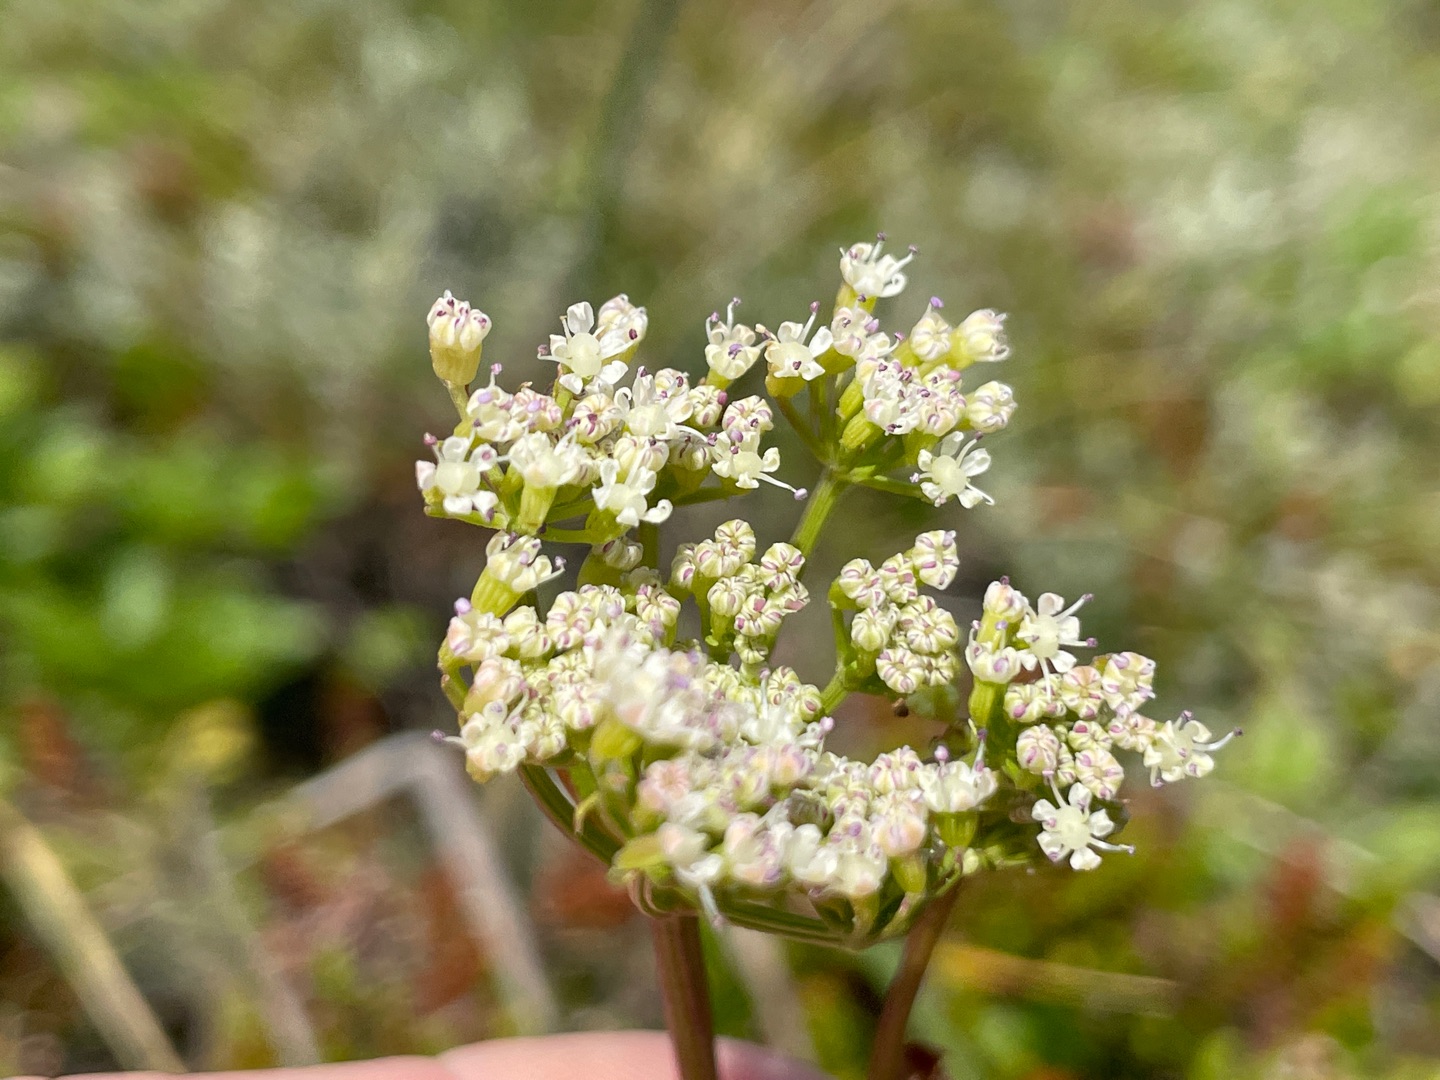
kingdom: Plantae
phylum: Tracheophyta
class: Magnoliopsida
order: Apiales
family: Apiaceae
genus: Ligusticum
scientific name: Ligusticum scothicum
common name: Skotsk lostilk
